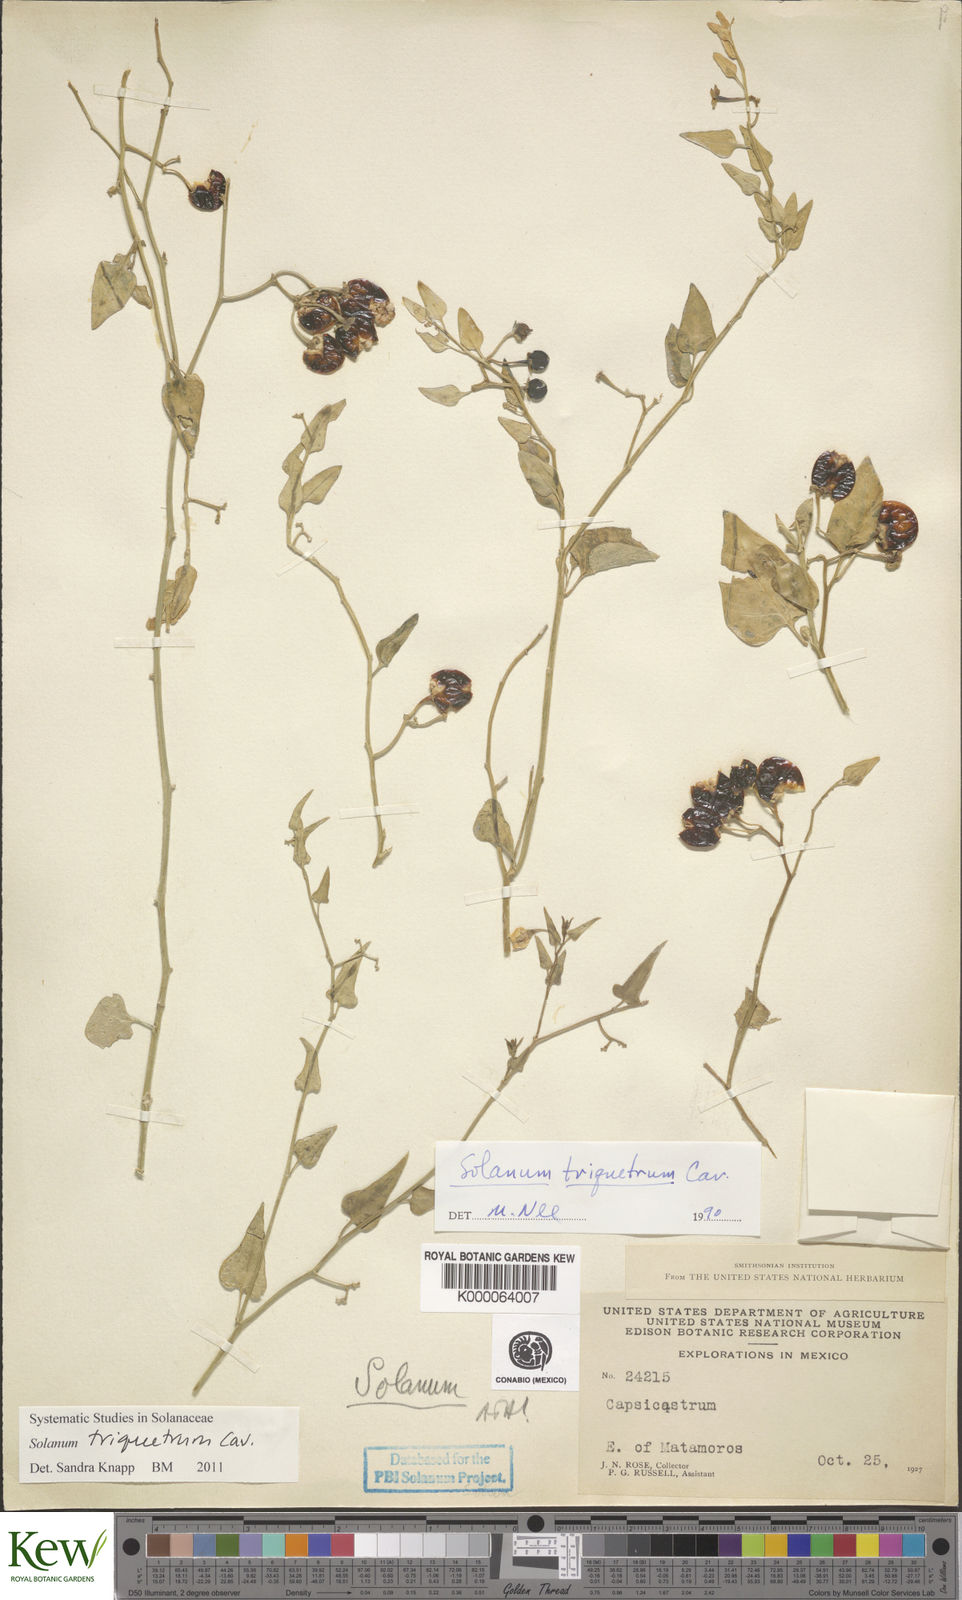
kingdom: Plantae
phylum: Tracheophyta
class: Magnoliopsida
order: Solanales
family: Solanaceae
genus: Solanum
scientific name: Solanum triquetrum
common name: Texas nightshade
